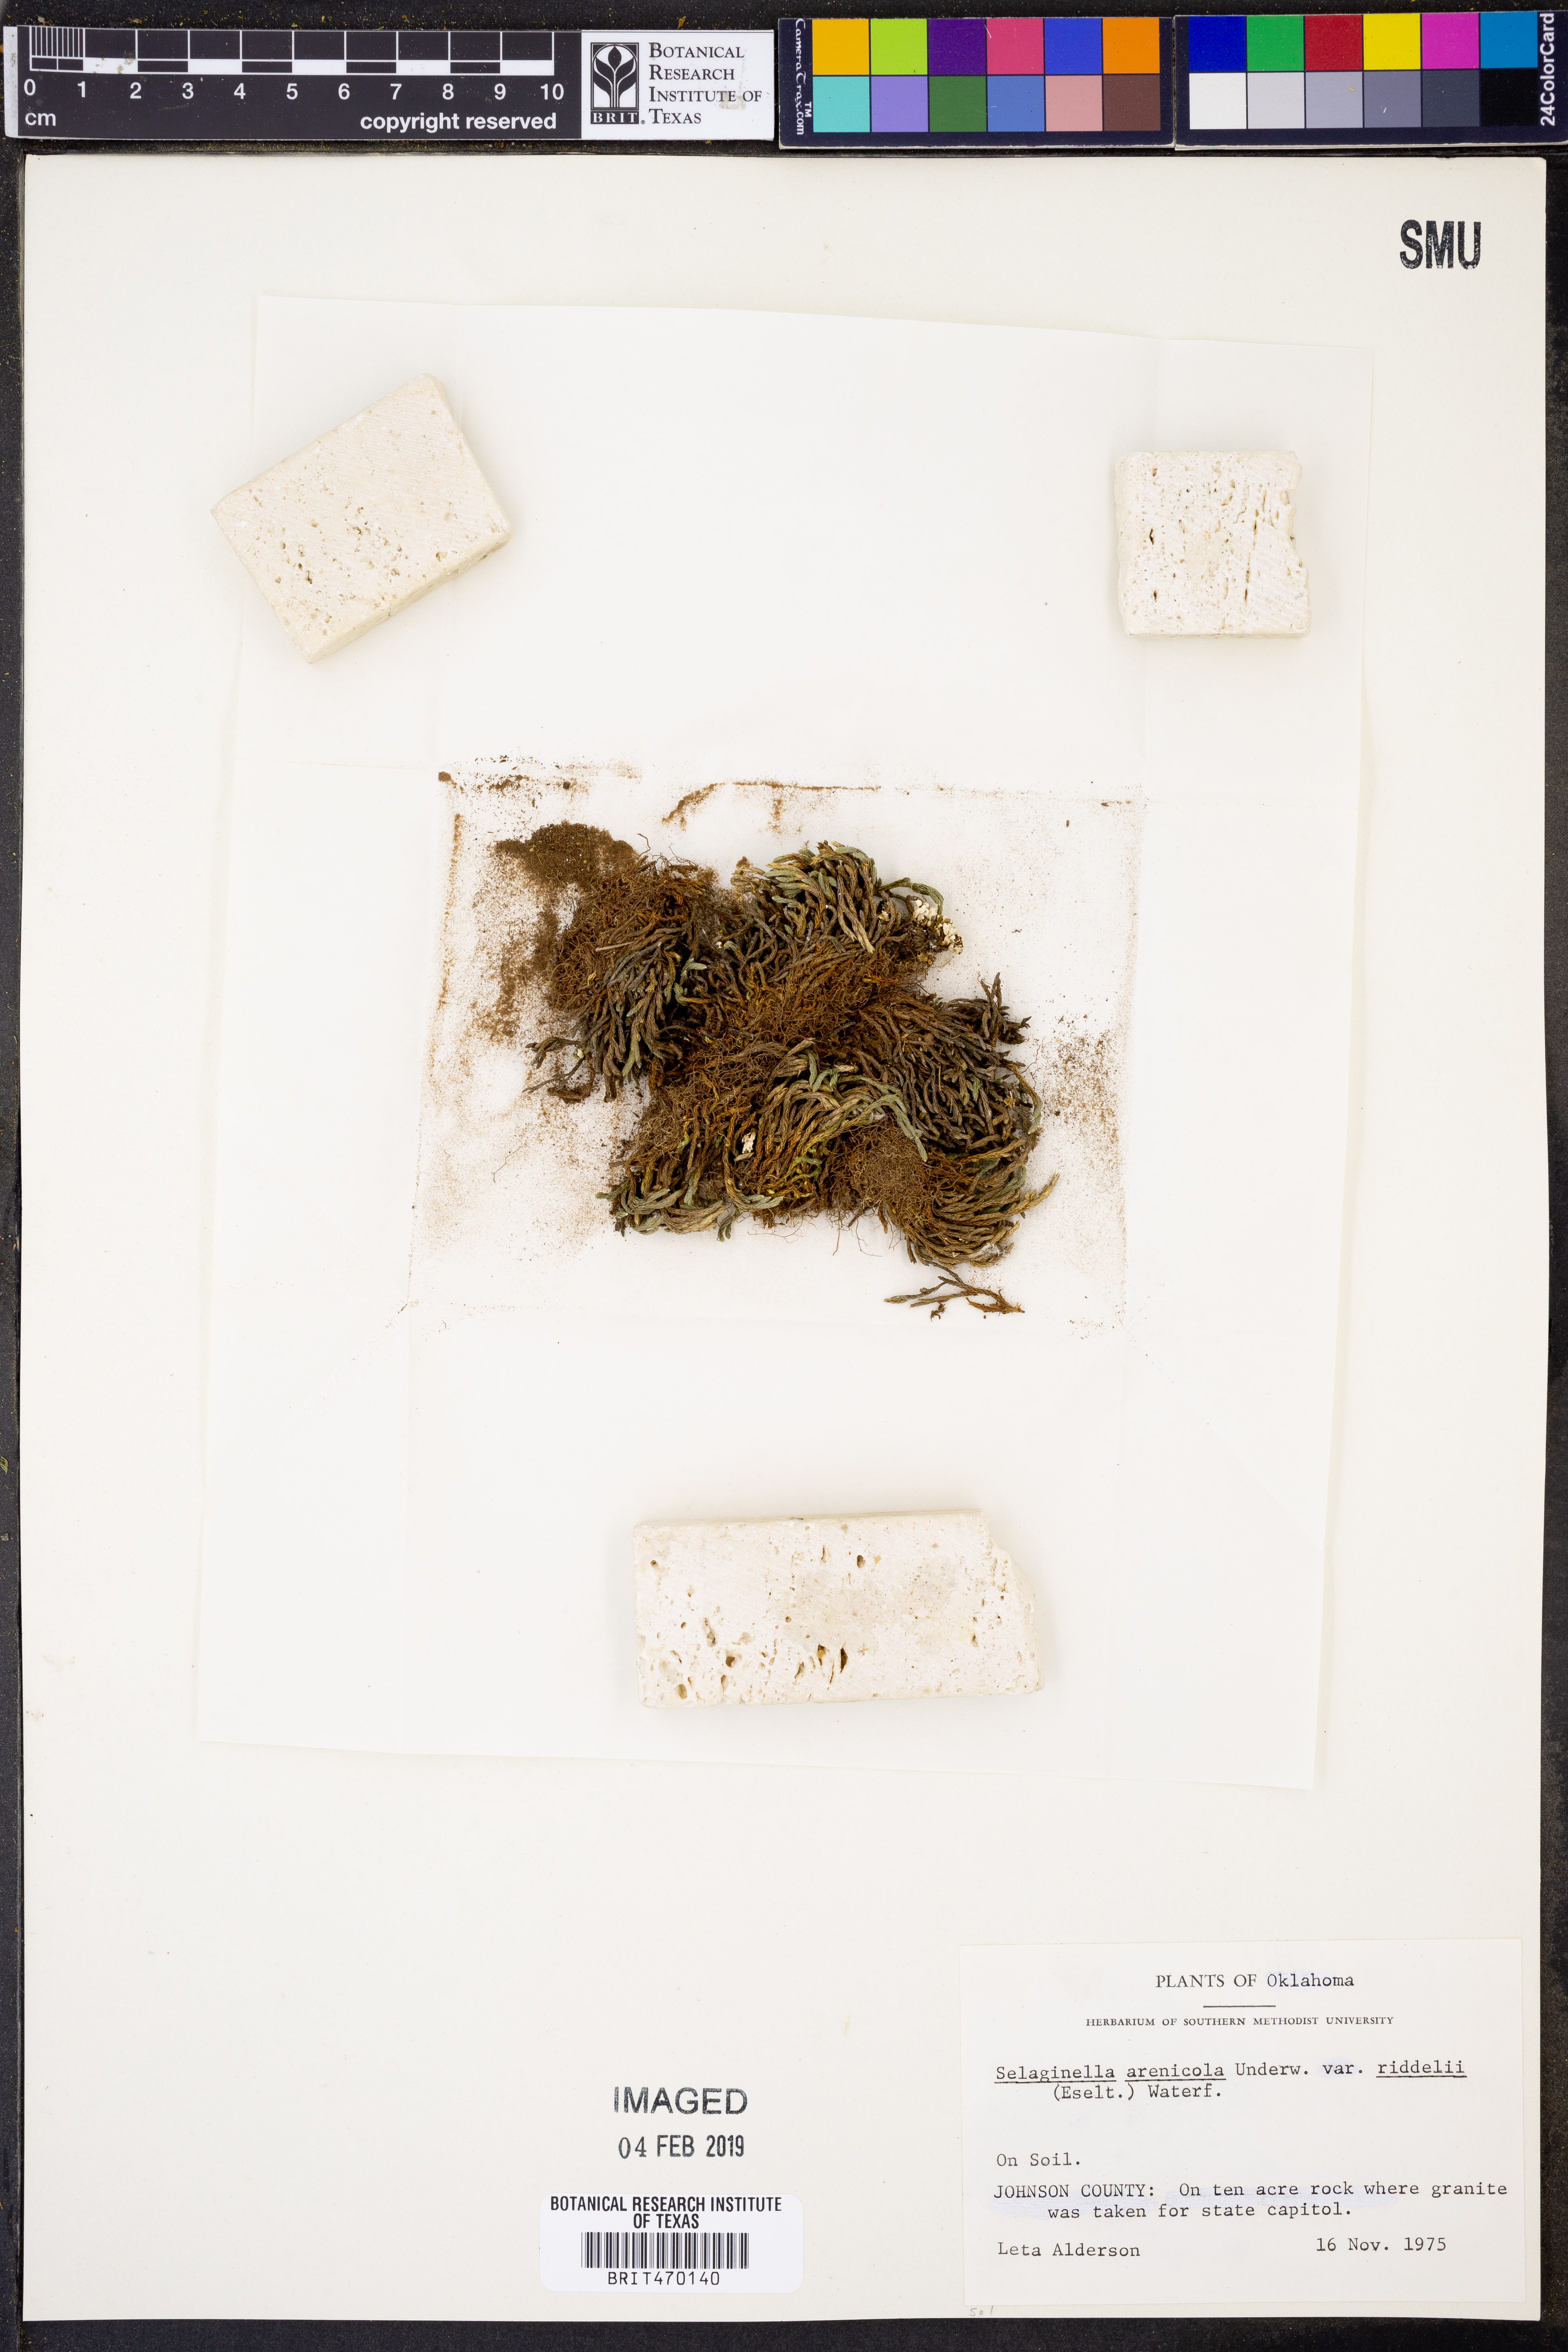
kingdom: Plantae
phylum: Tracheophyta
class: Lycopodiopsida
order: Selaginellales
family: Selaginellaceae
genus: Selaginella
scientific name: Selaginella corallina
